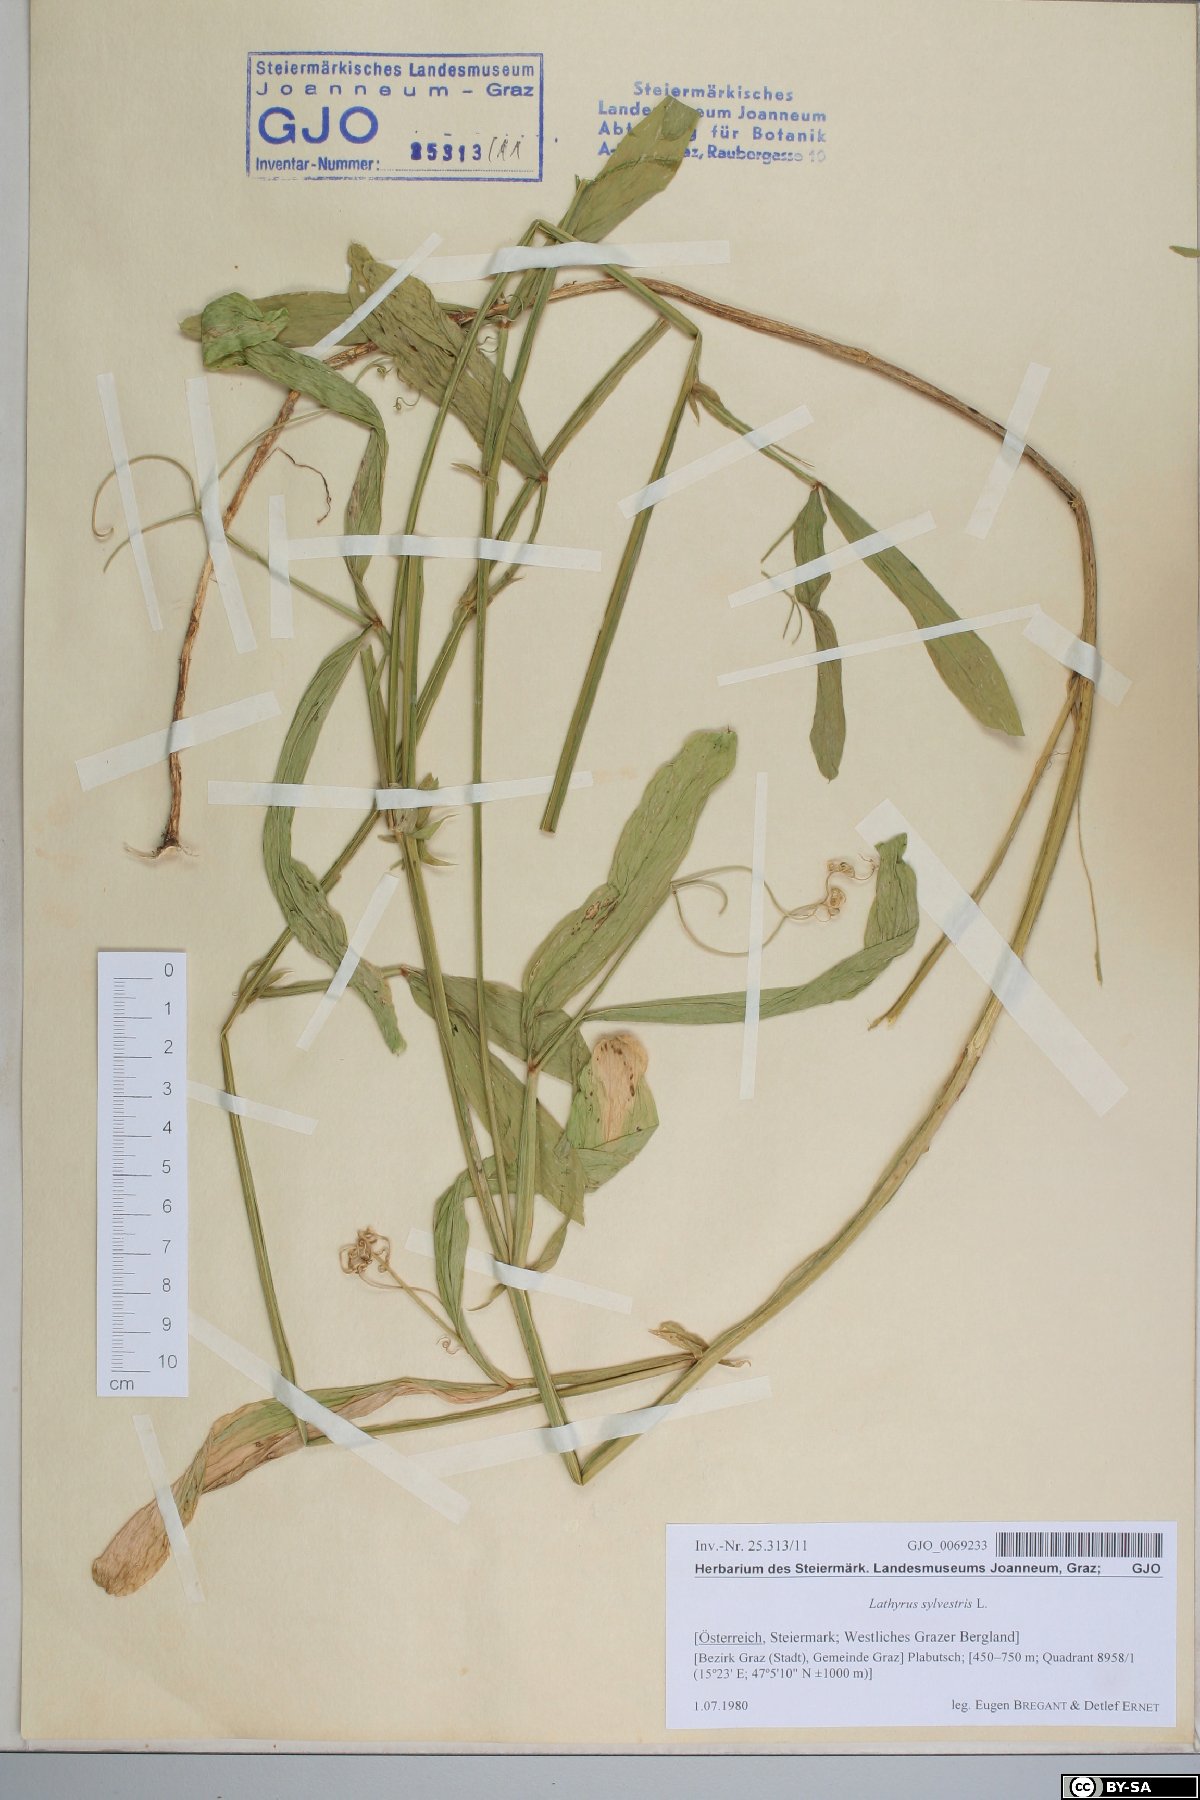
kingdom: Plantae
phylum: Tracheophyta
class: Magnoliopsida
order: Fabales
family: Fabaceae
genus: Lathyrus
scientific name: Lathyrus sylvestris
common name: Flat pea
